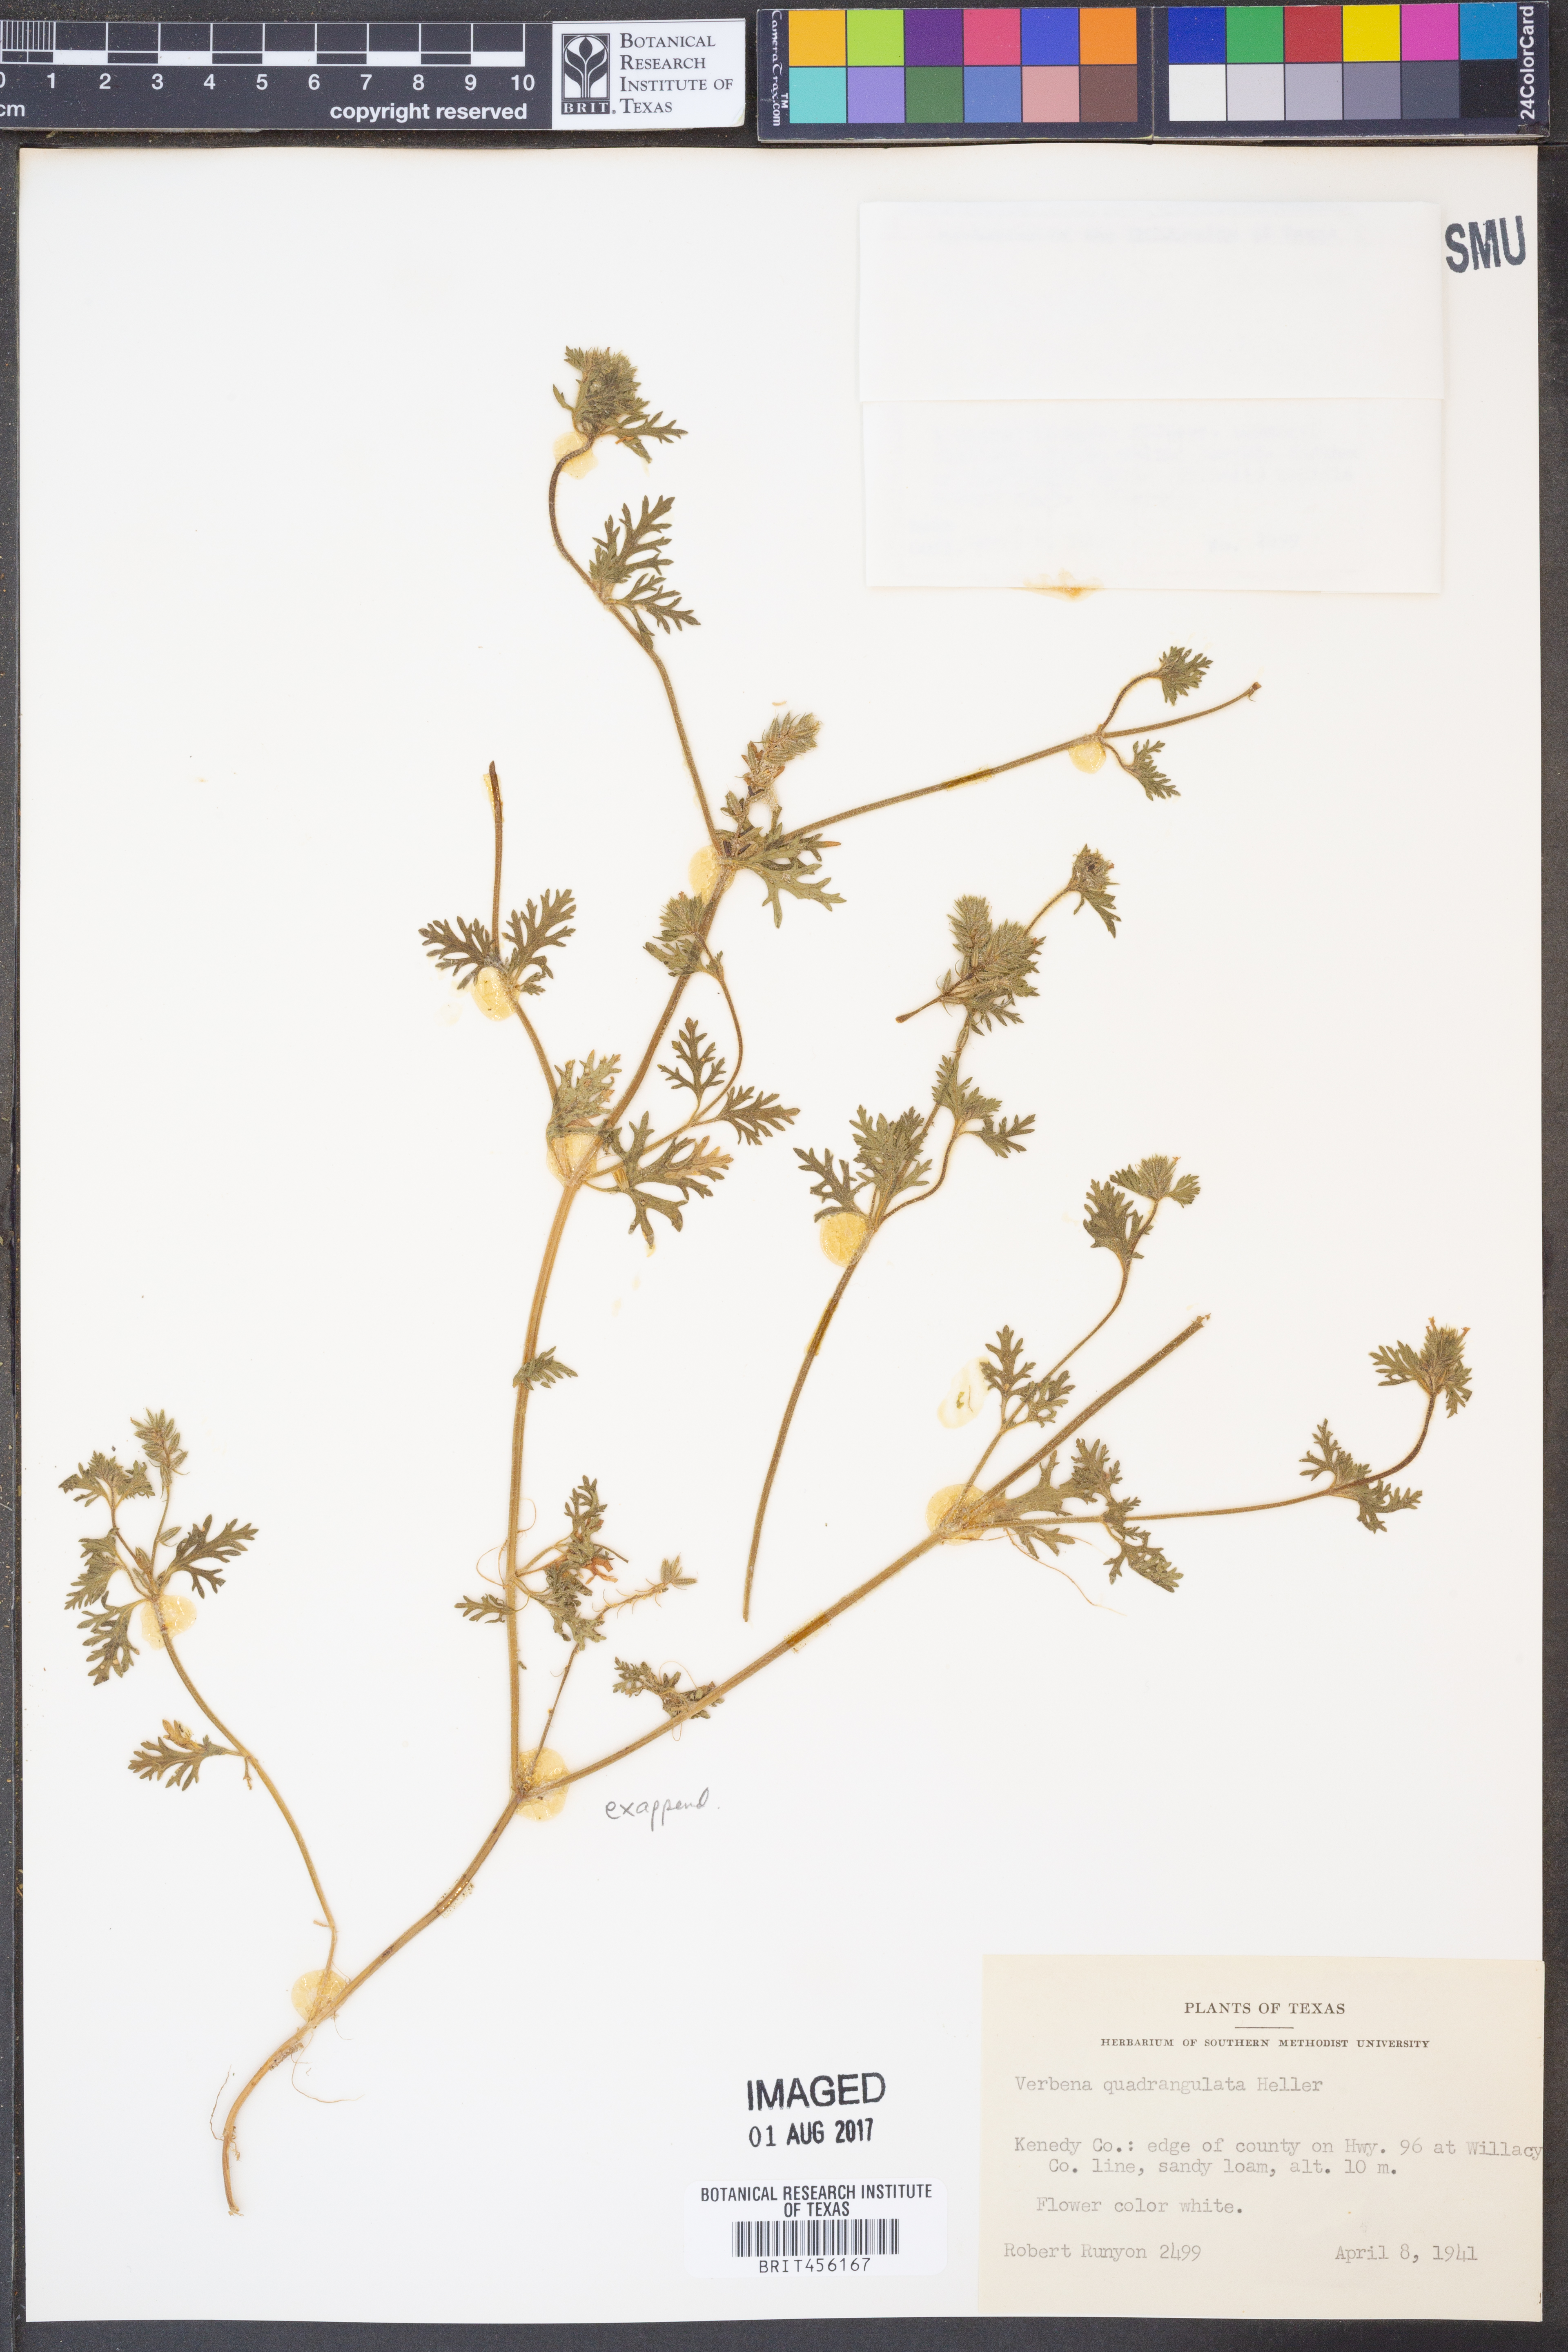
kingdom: Plantae
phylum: Tracheophyta
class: Magnoliopsida
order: Lamiales
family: Verbenaceae
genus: Verbena
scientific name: Verbena quadrangulata
